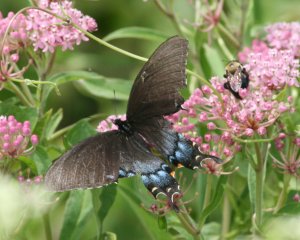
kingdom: Animalia
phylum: Arthropoda
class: Insecta
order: Lepidoptera
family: Papilionidae
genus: Pterourus
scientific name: Pterourus glaucus
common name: Eastern Tiger Swallowtail
